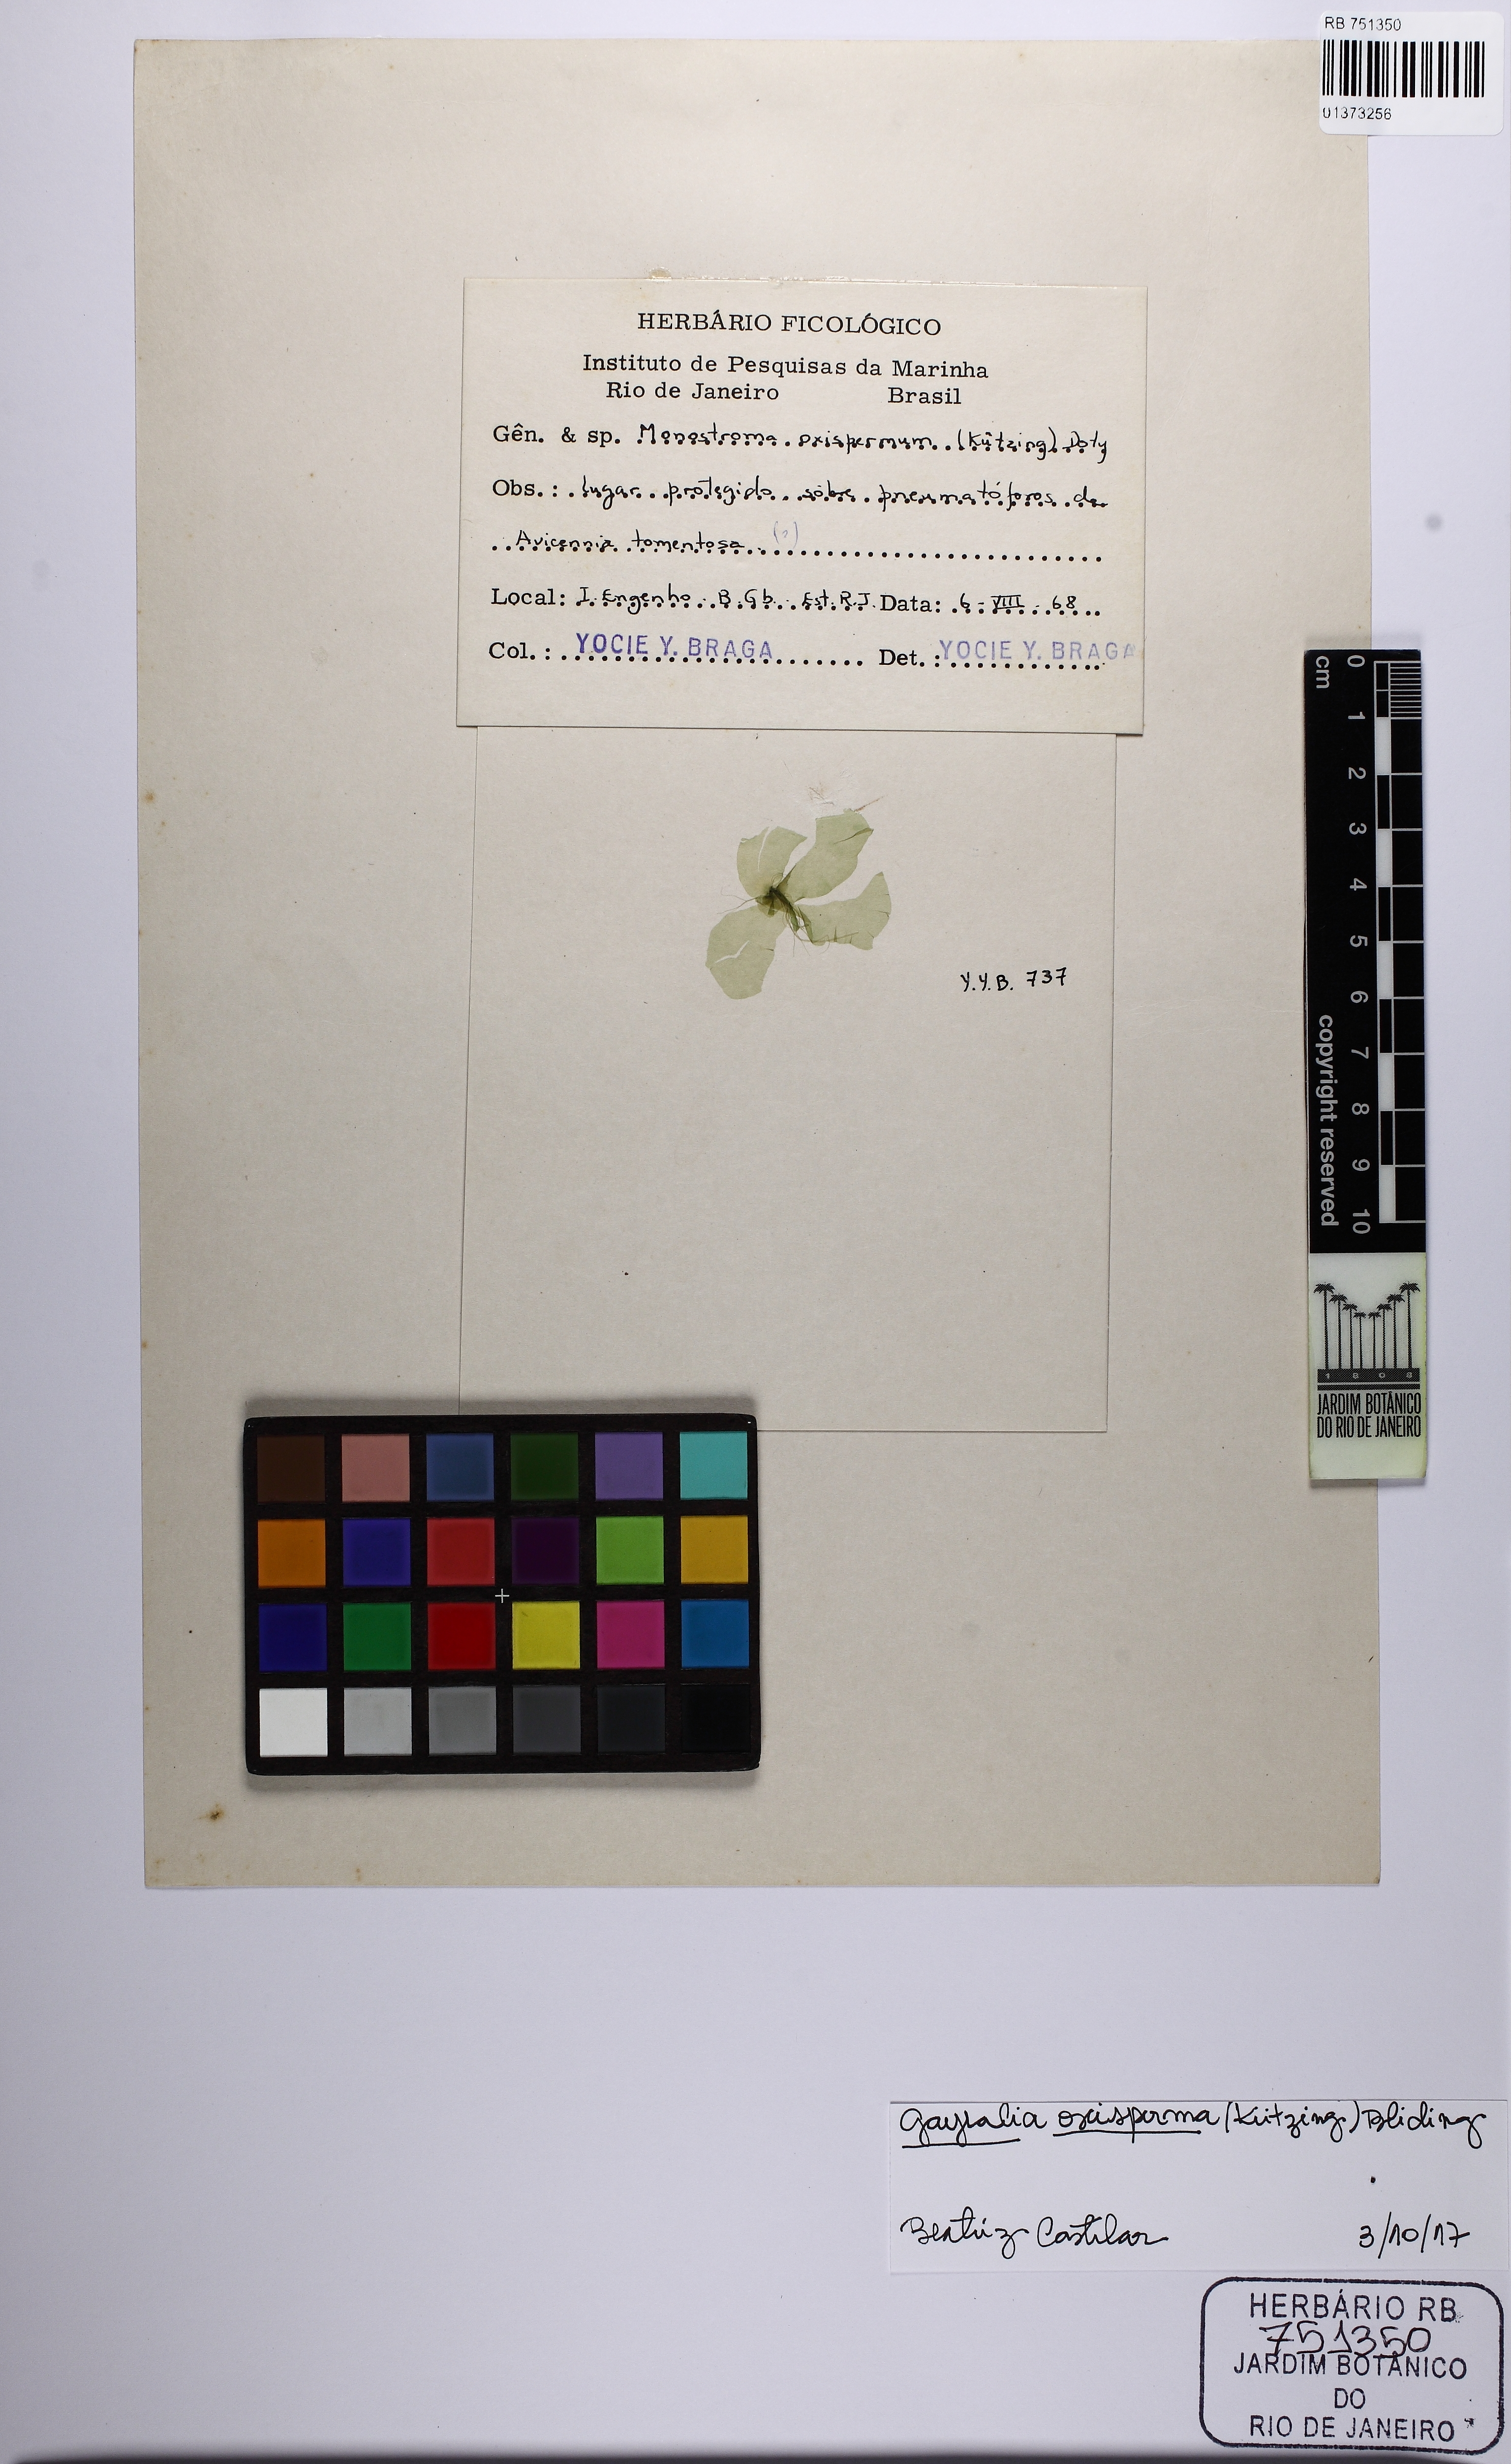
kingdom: Plantae
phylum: Chlorophyta
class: Ulvophyceae
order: Ulvales
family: Gayraliaceae
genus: Gayralia
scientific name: Gayralia oxysperma
